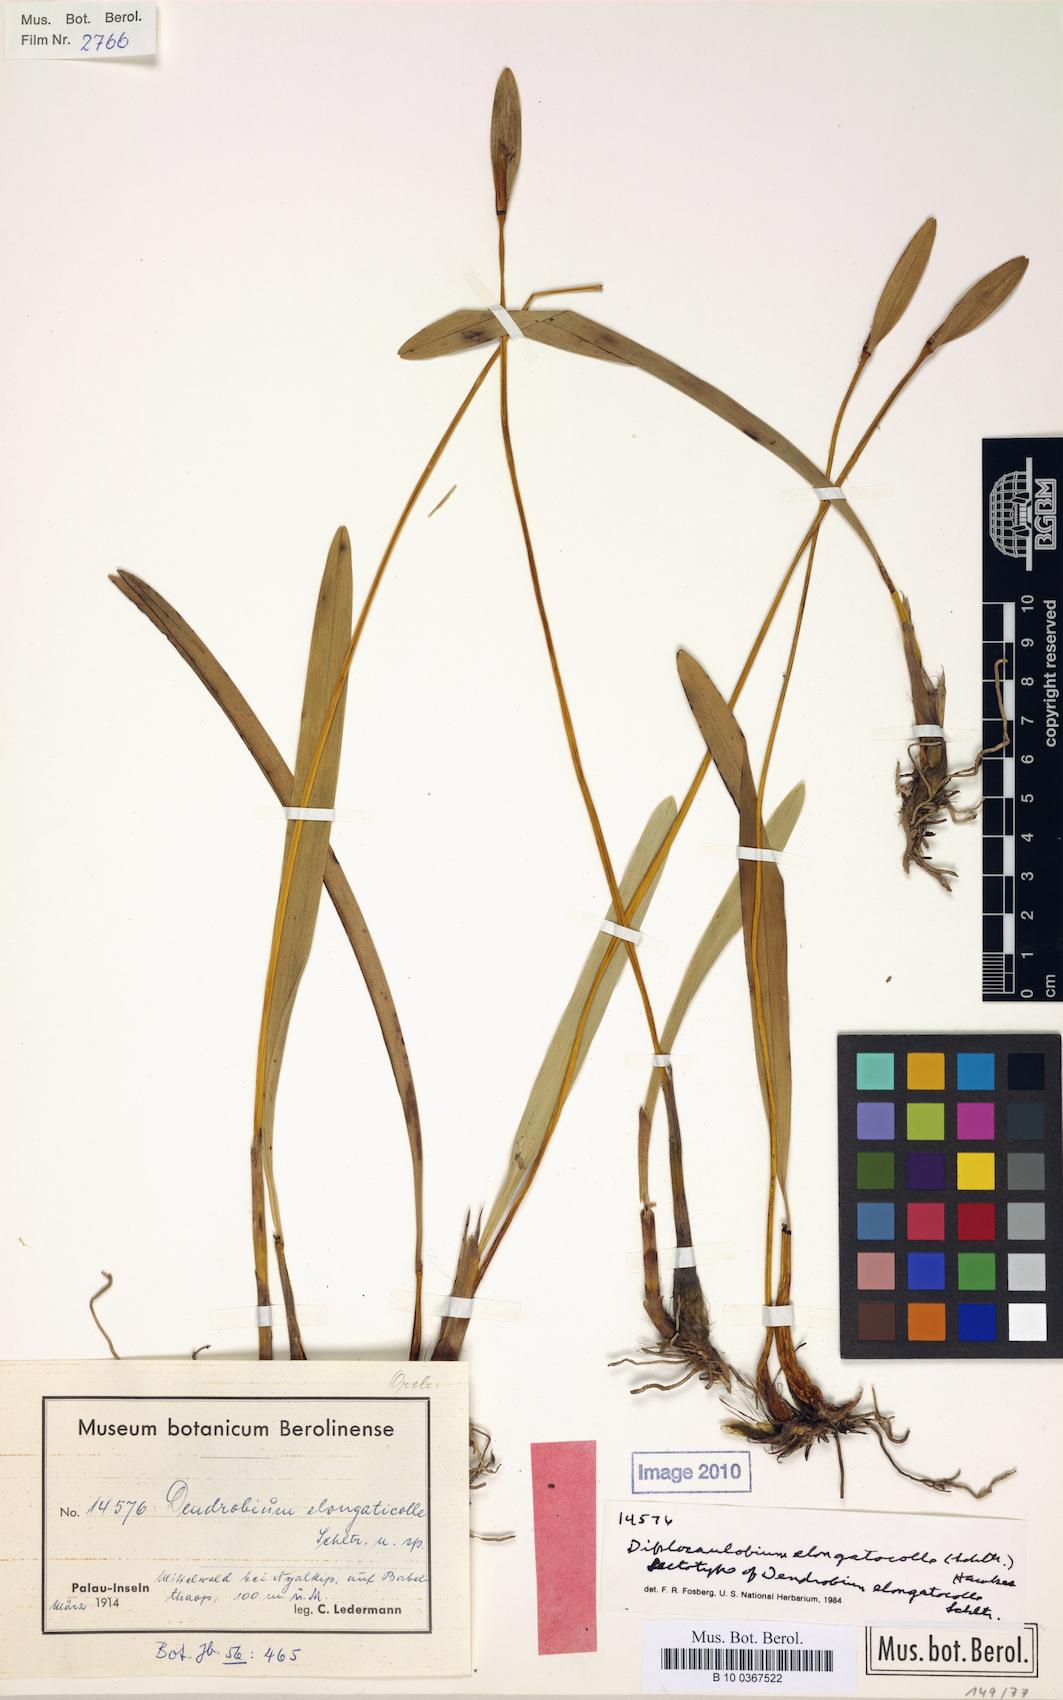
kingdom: Plantae
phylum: Tracheophyta
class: Liliopsida
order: Asparagales
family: Orchidaceae
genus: Dendrobium
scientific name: Dendrobium elongaticolle
